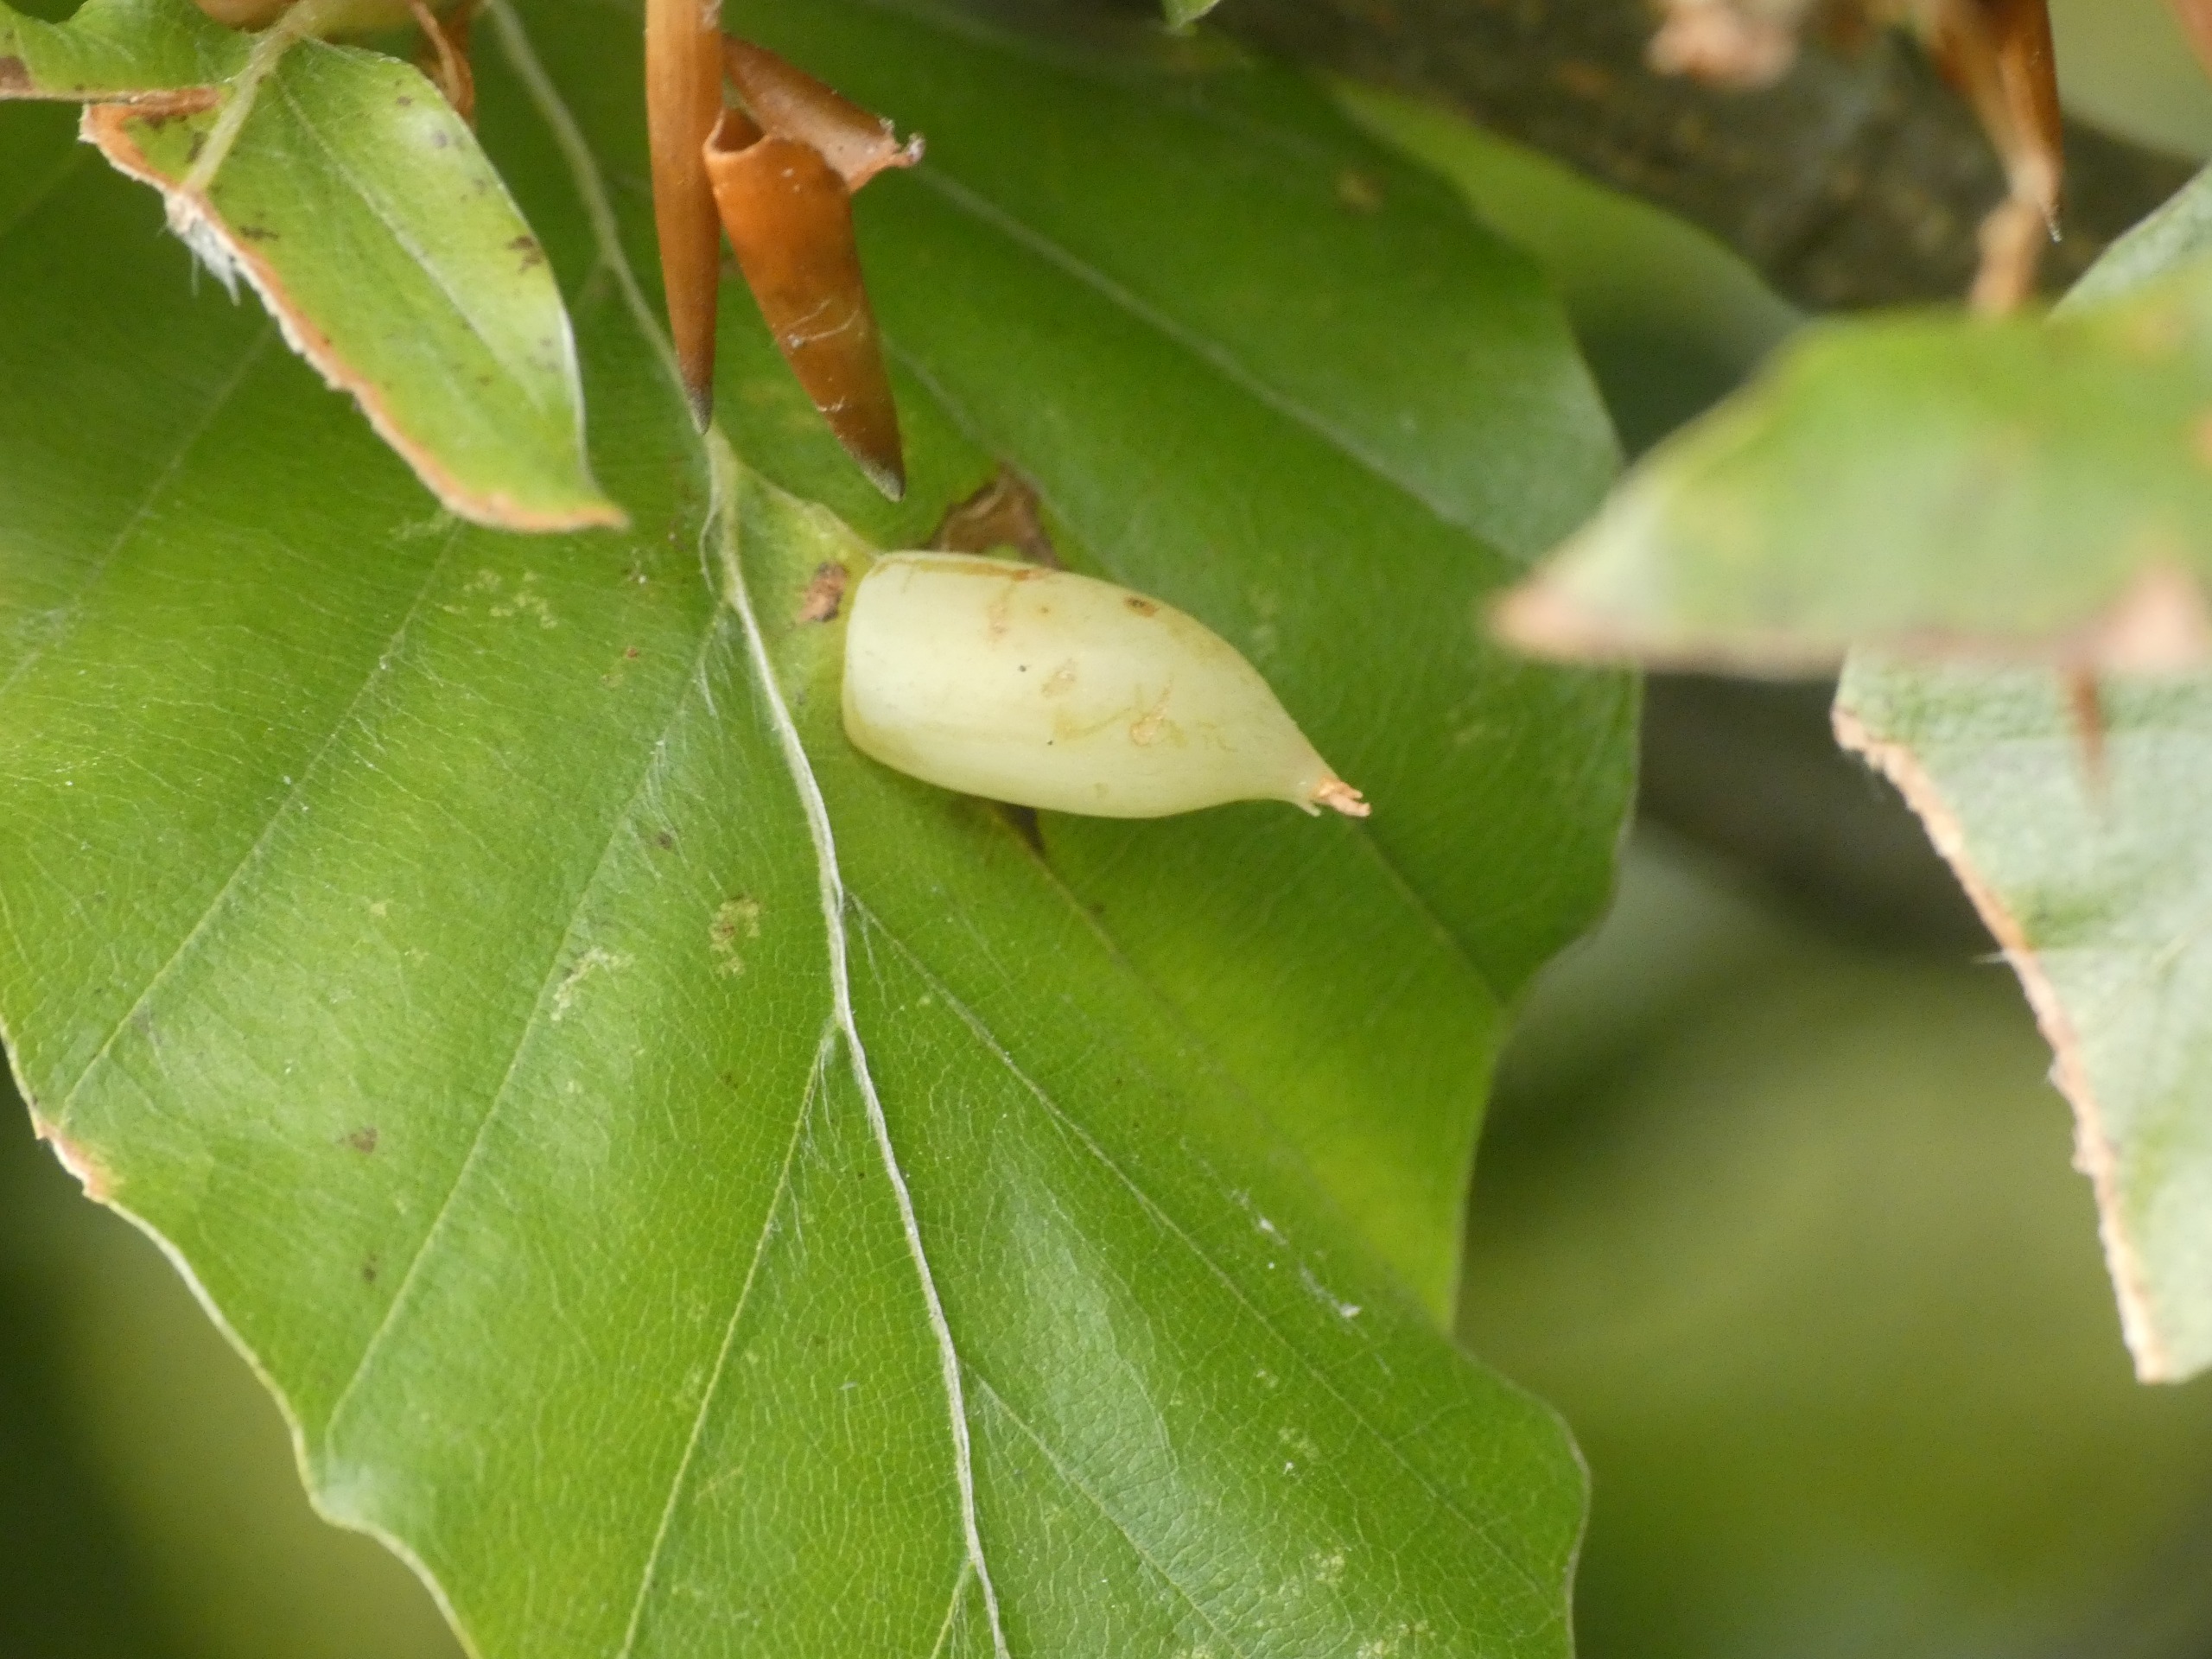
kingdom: Animalia
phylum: Arthropoda
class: Insecta
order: Diptera
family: Cecidomyiidae
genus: Mikiola
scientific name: Mikiola fagi
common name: Bøgegalmyg
